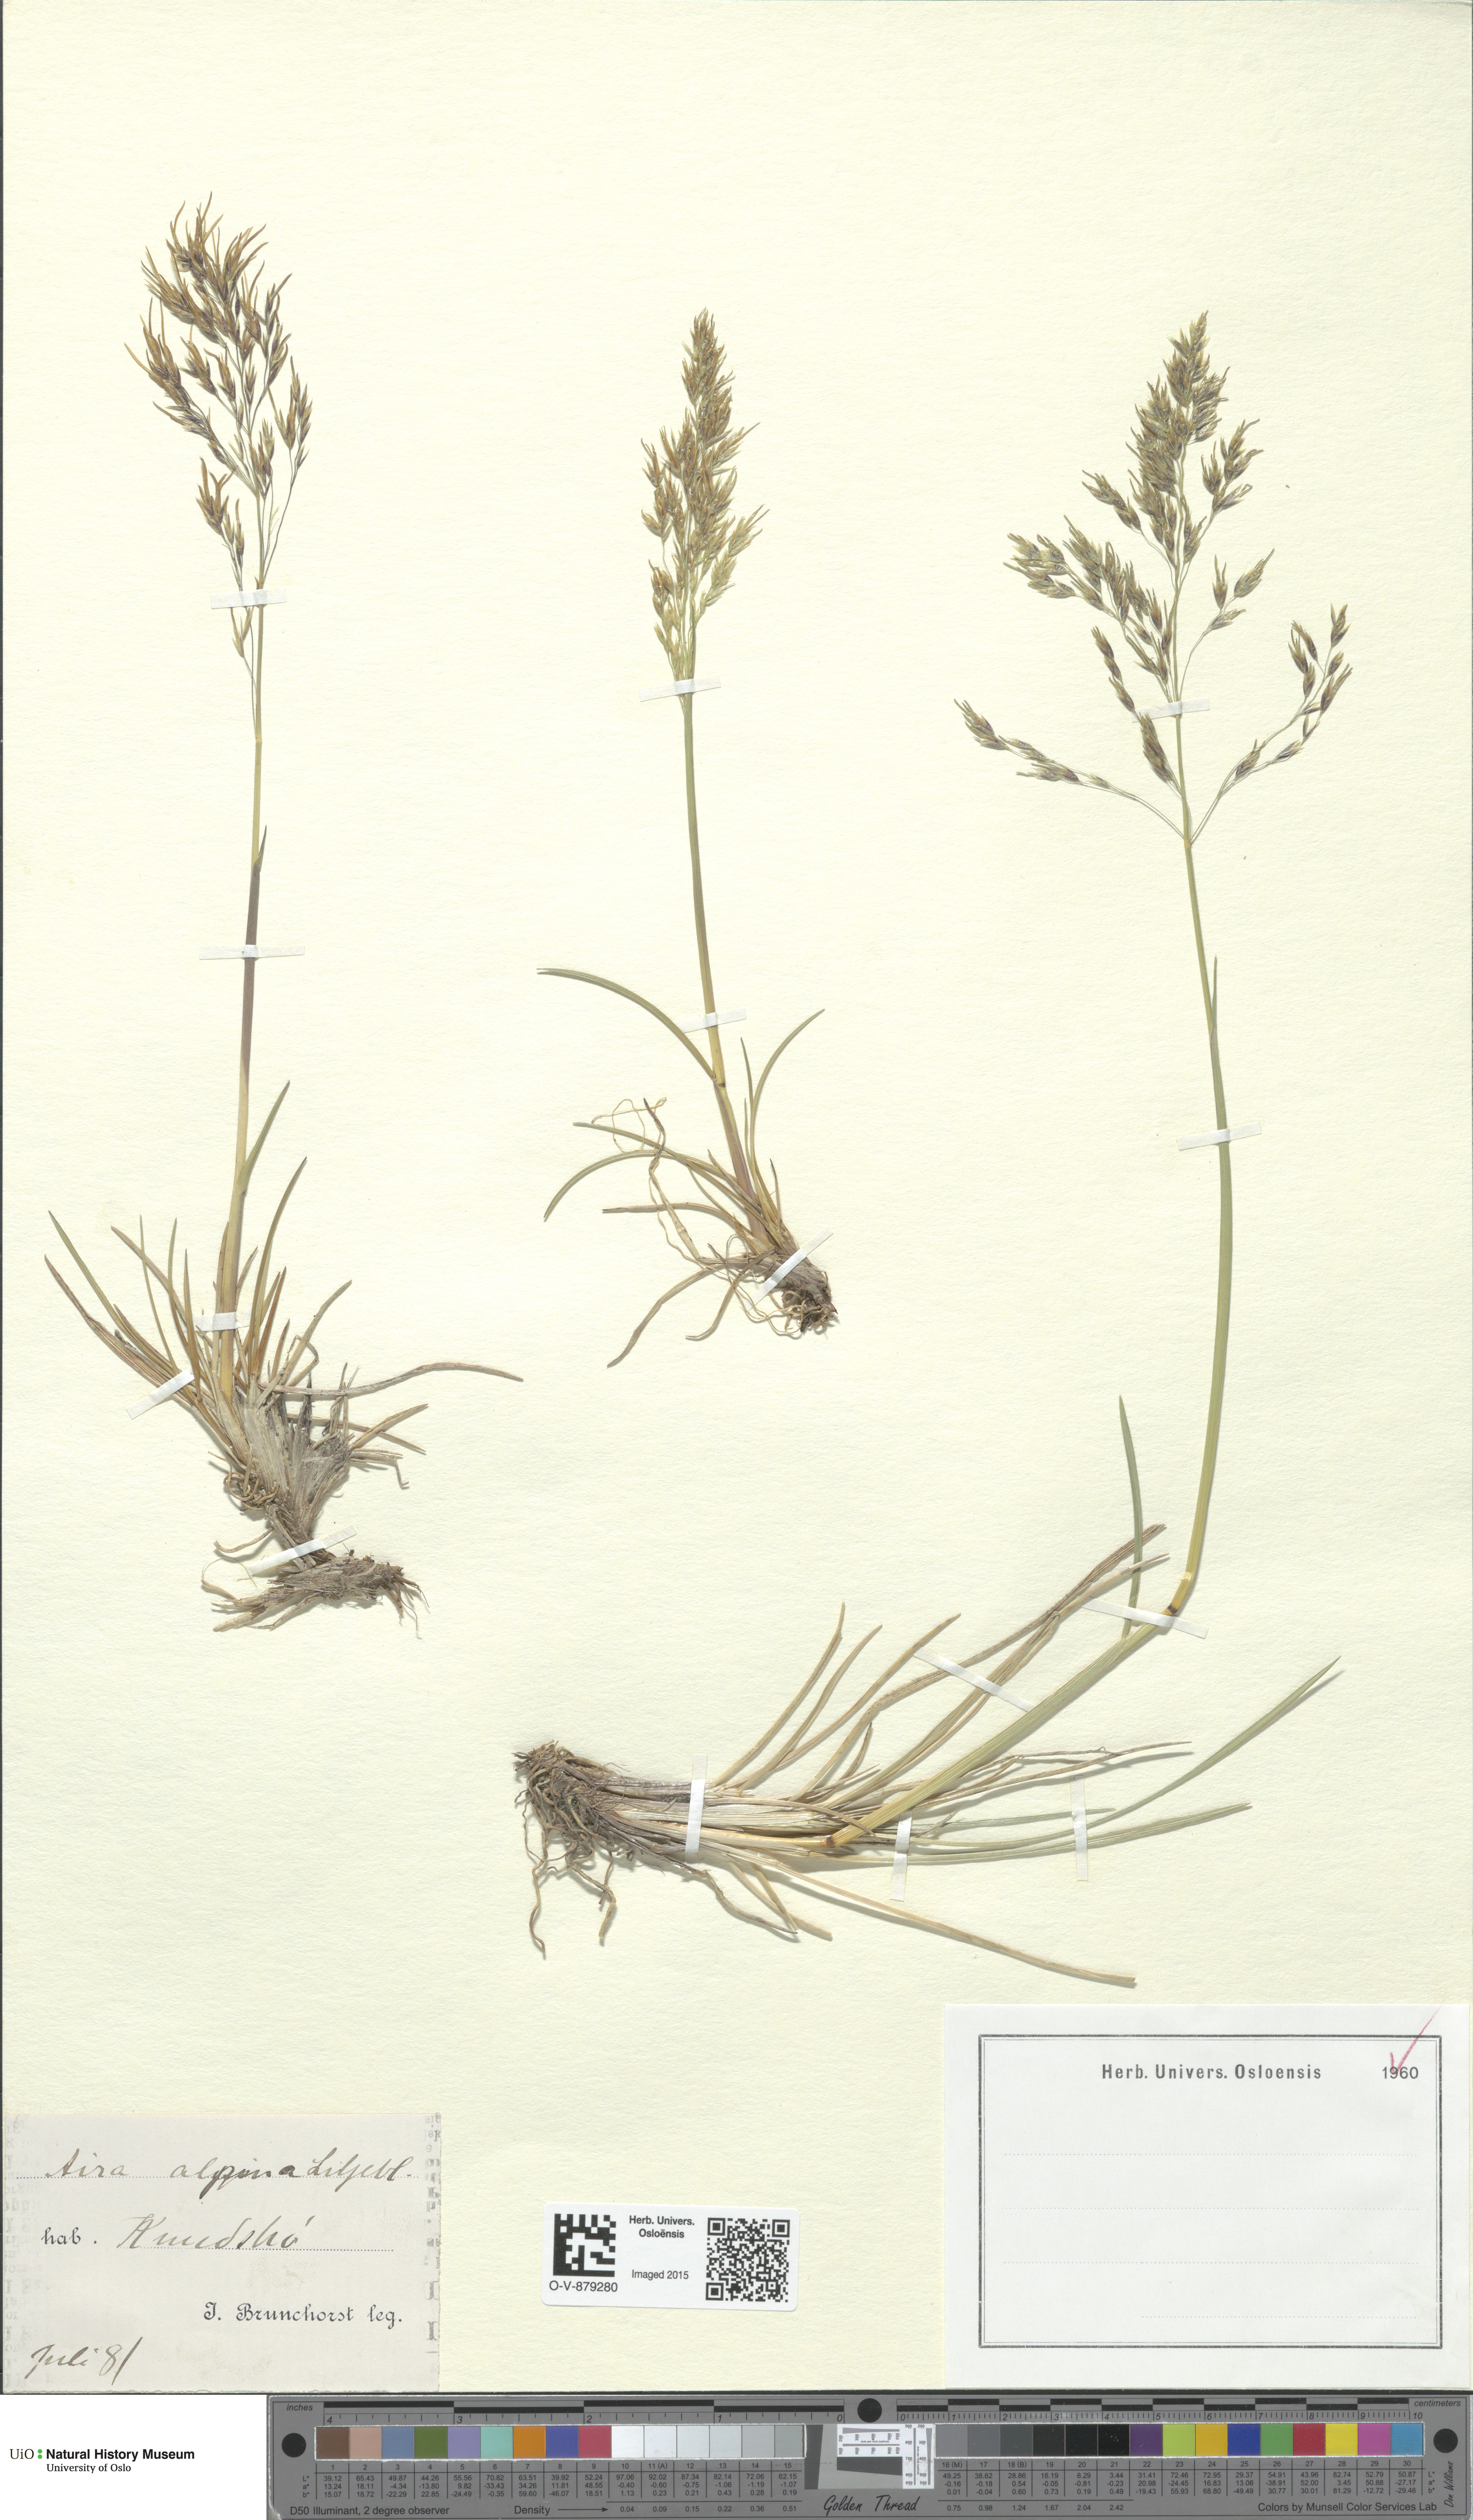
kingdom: Plantae
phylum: Tracheophyta
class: Liliopsida
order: Poales
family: Poaceae
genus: Deschampsia
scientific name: Deschampsia cespitosa
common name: Tufted hair-grass
